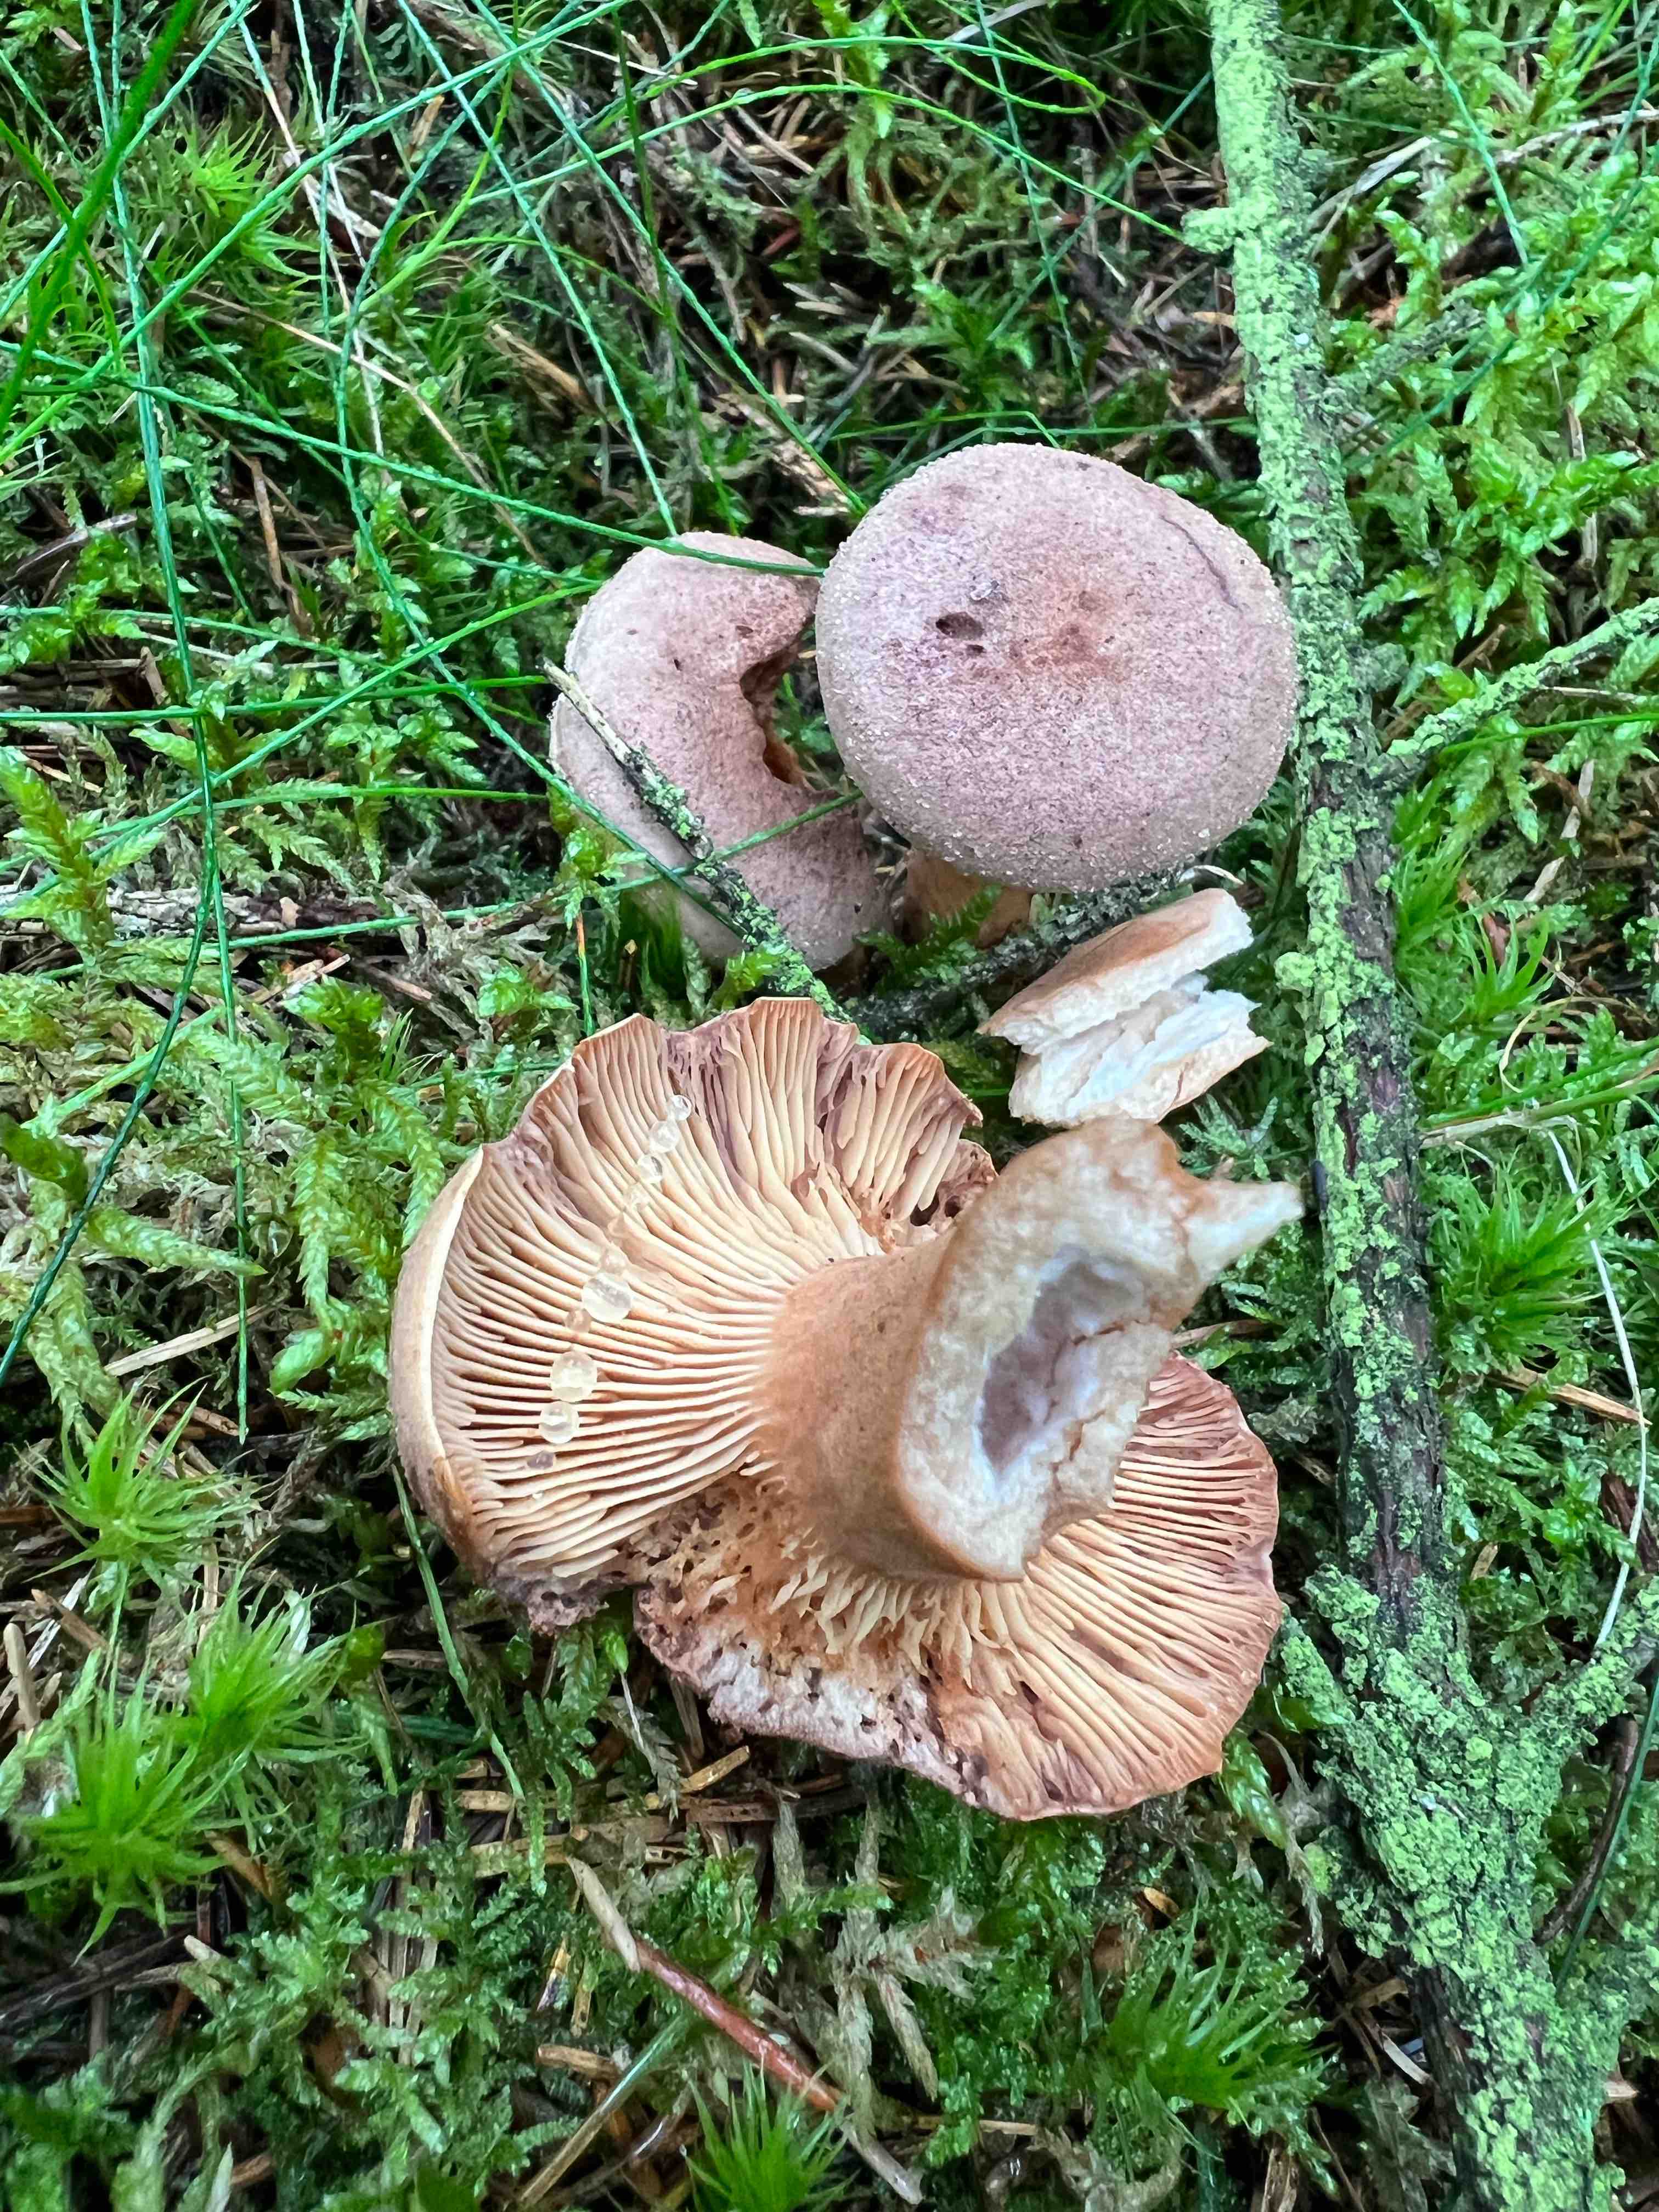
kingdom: Fungi
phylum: Basidiomycota
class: Agaricomycetes
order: Russulales
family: Russulaceae
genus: Lactarius
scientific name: Lactarius helvus
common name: mose-mælkehat
